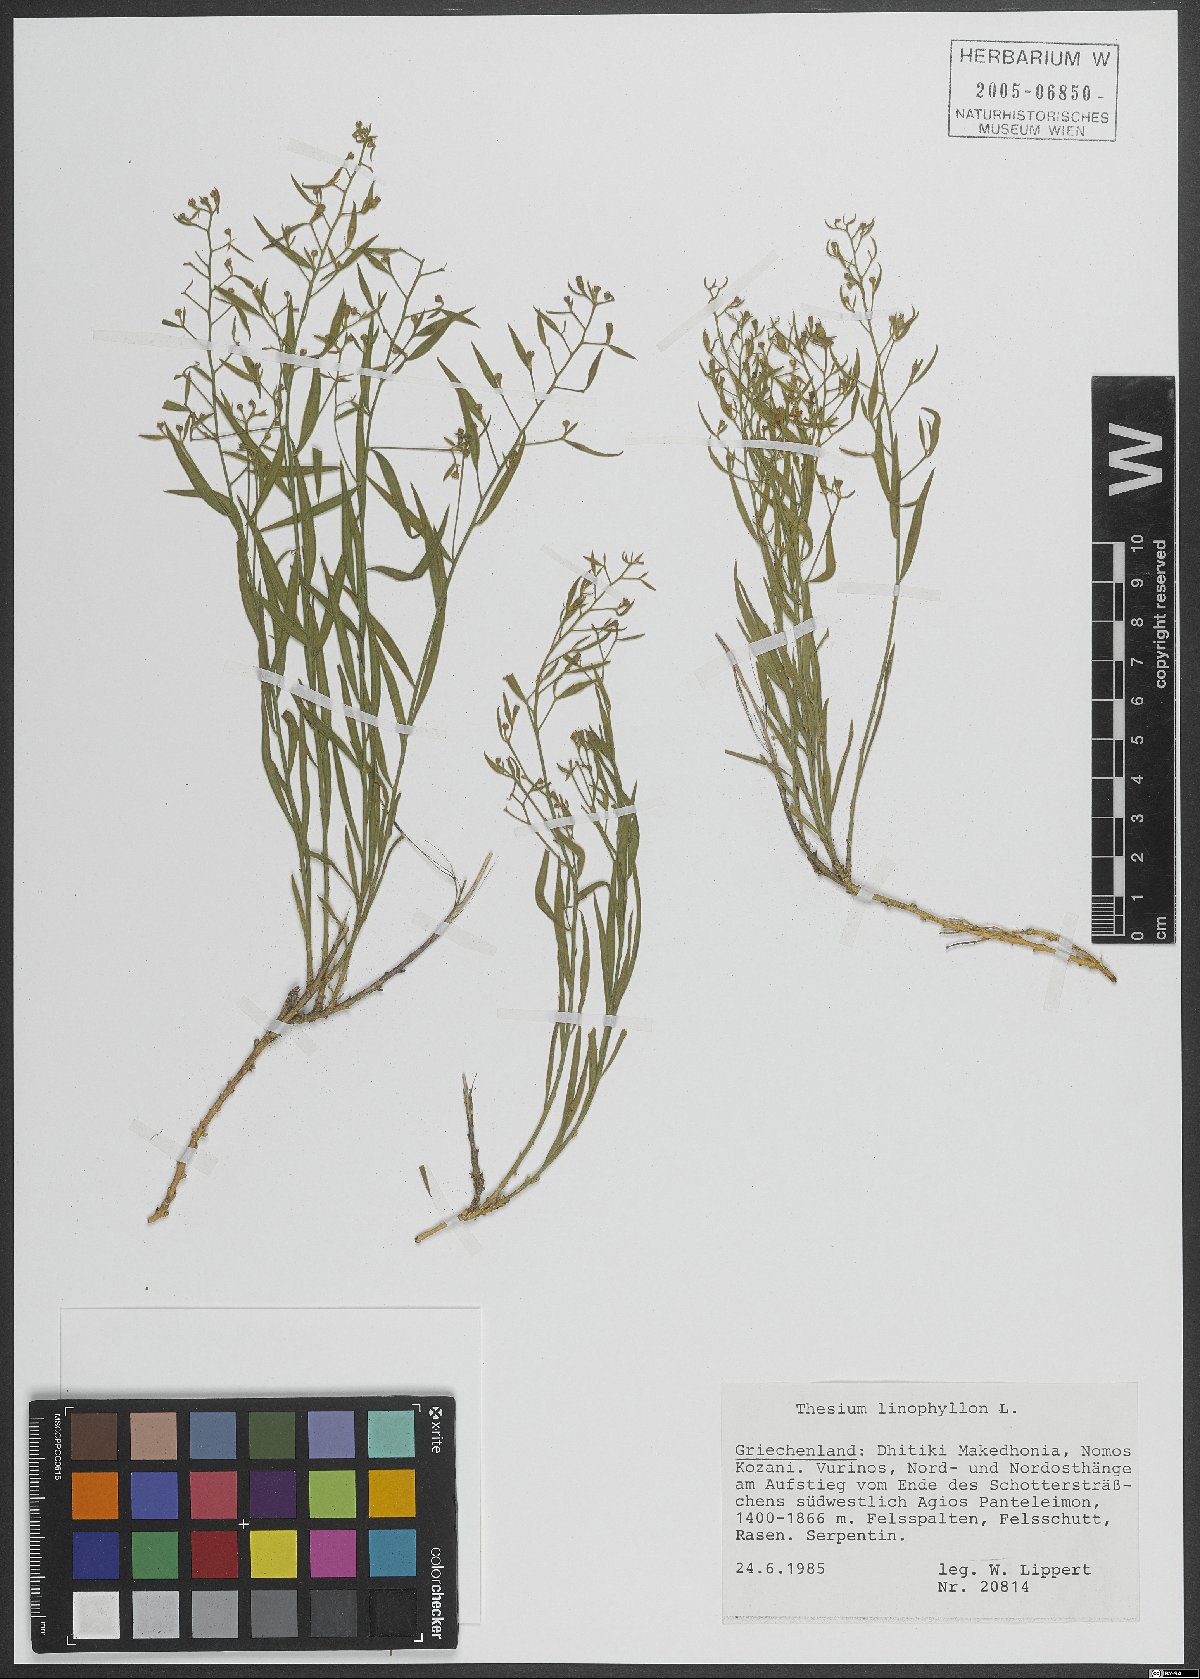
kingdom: Plantae
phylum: Tracheophyta
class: Magnoliopsida
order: Santalales
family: Thesiaceae
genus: Thesium
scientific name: Thesium linophyllon
